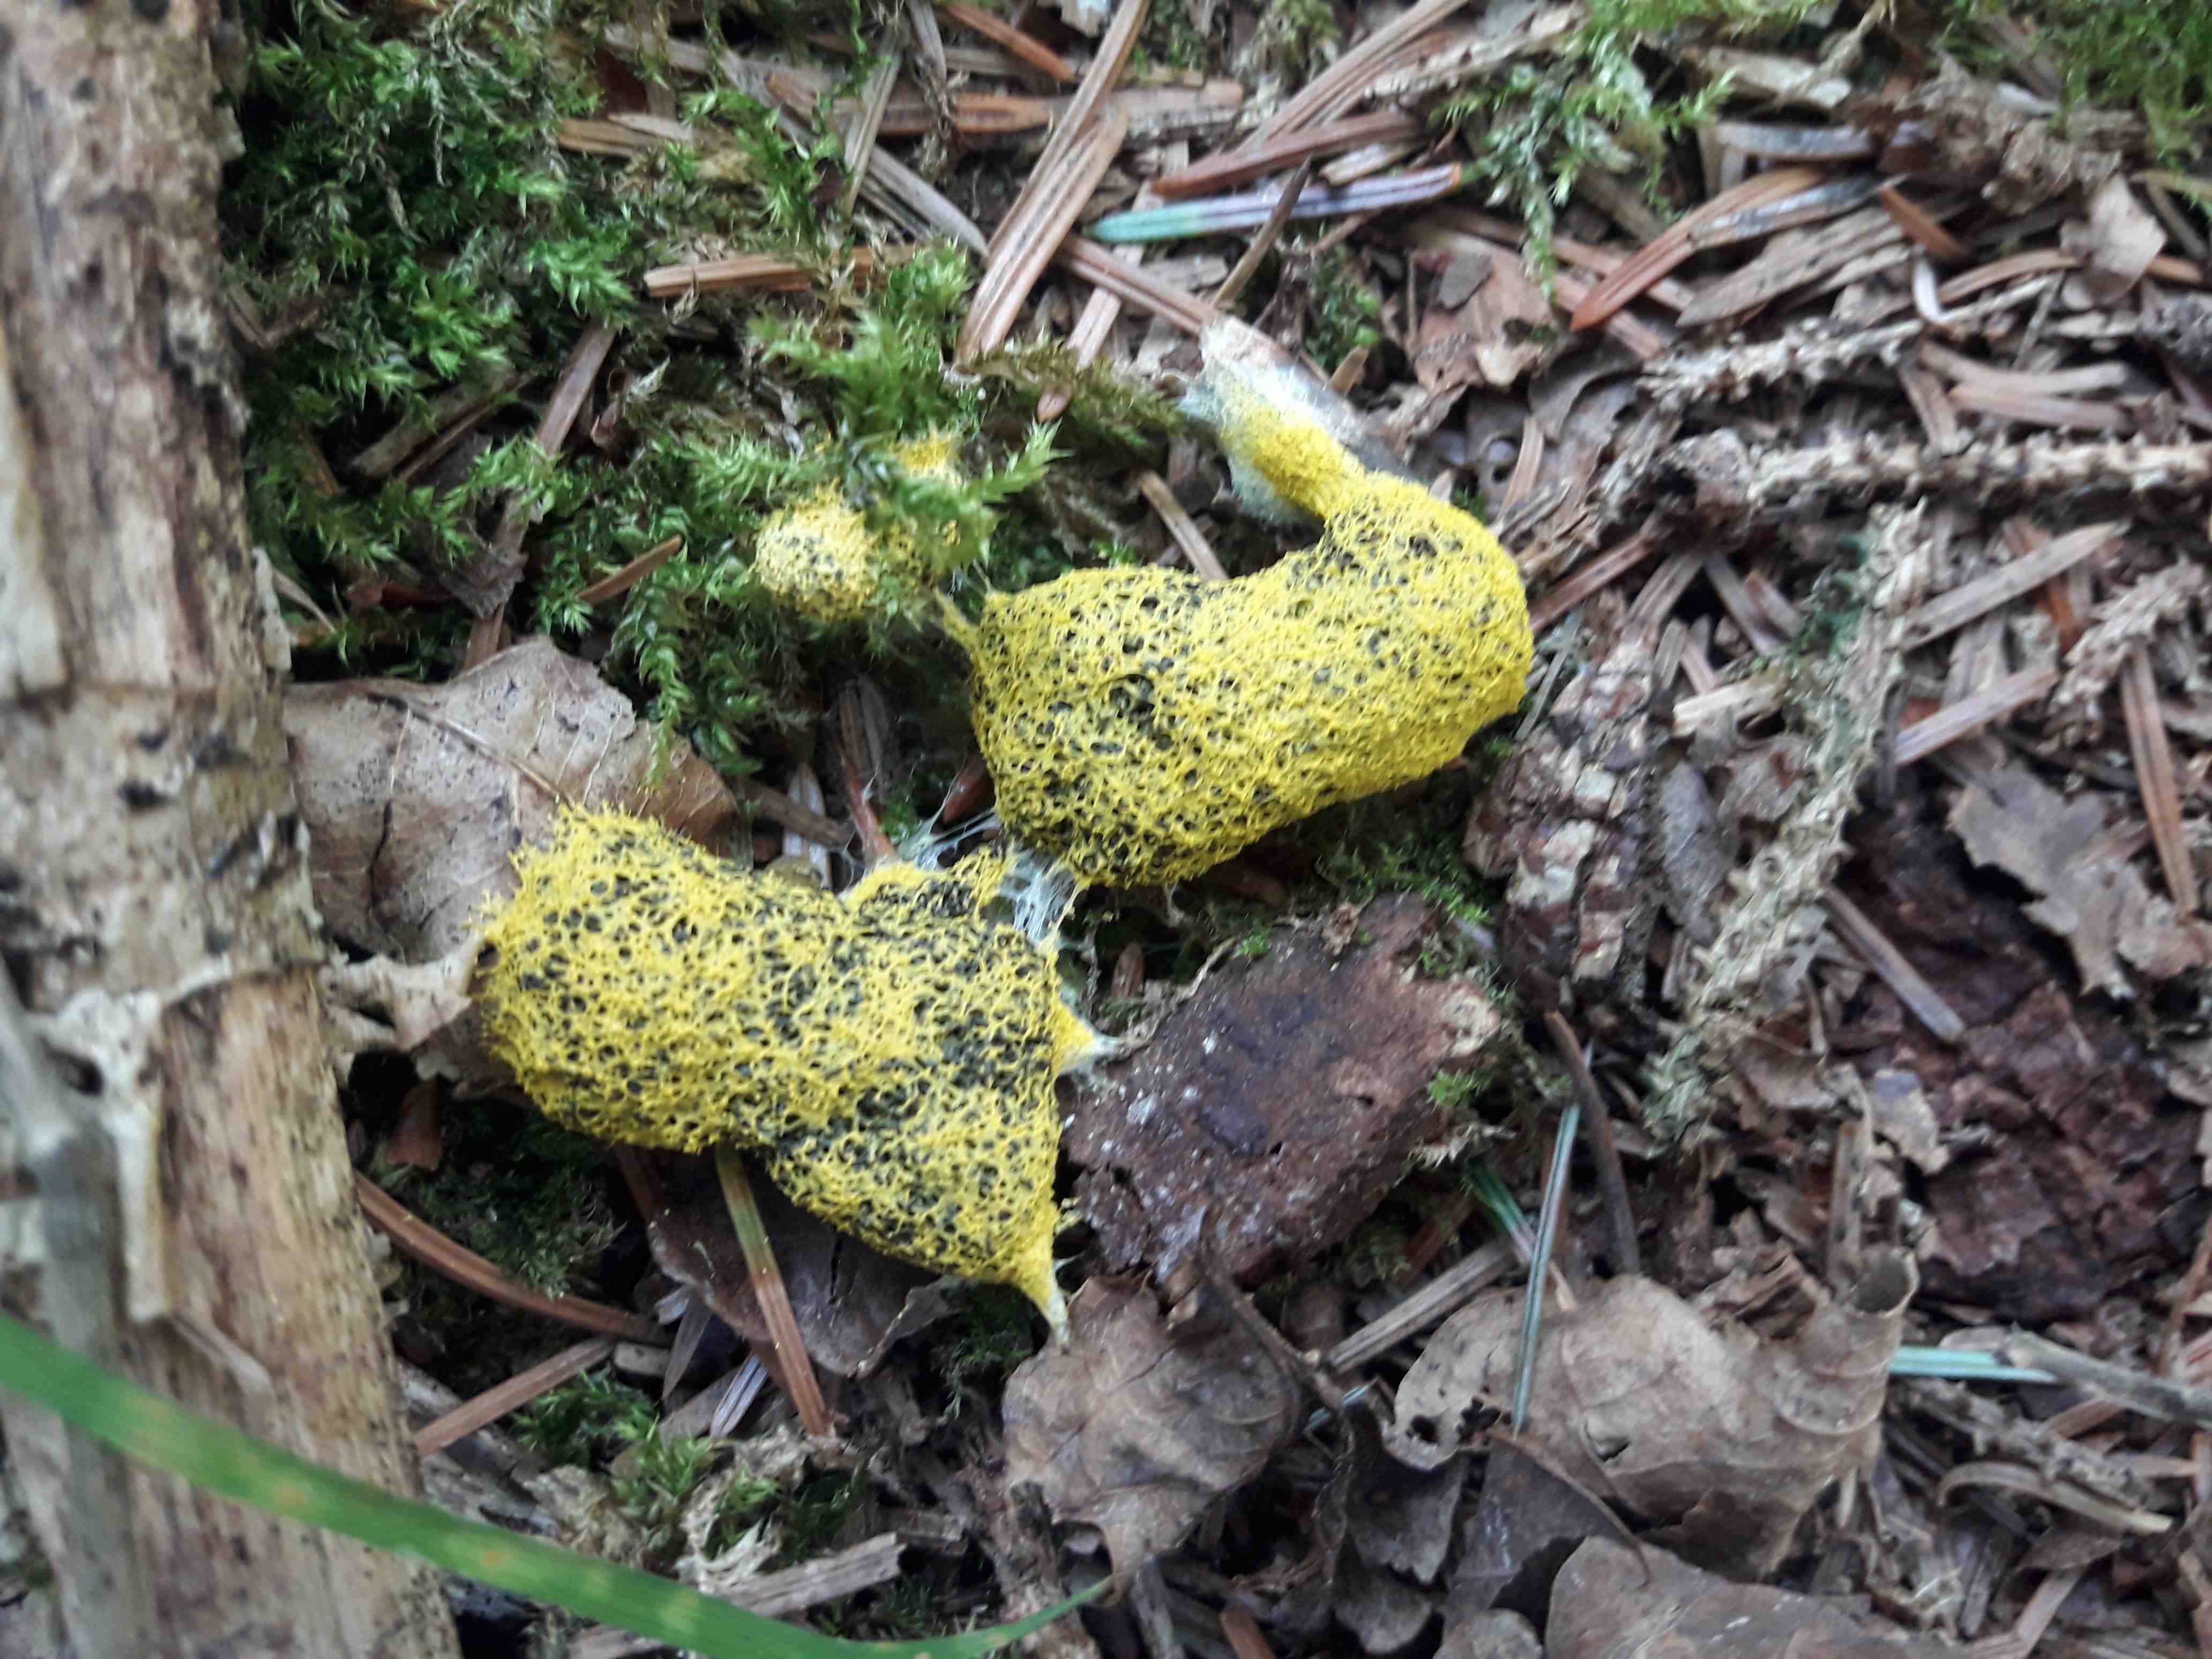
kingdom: Protozoa
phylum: Mycetozoa
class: Myxomycetes
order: Physarales
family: Physaraceae
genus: Fuligo
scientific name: Fuligo septica
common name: gul troldsmør
